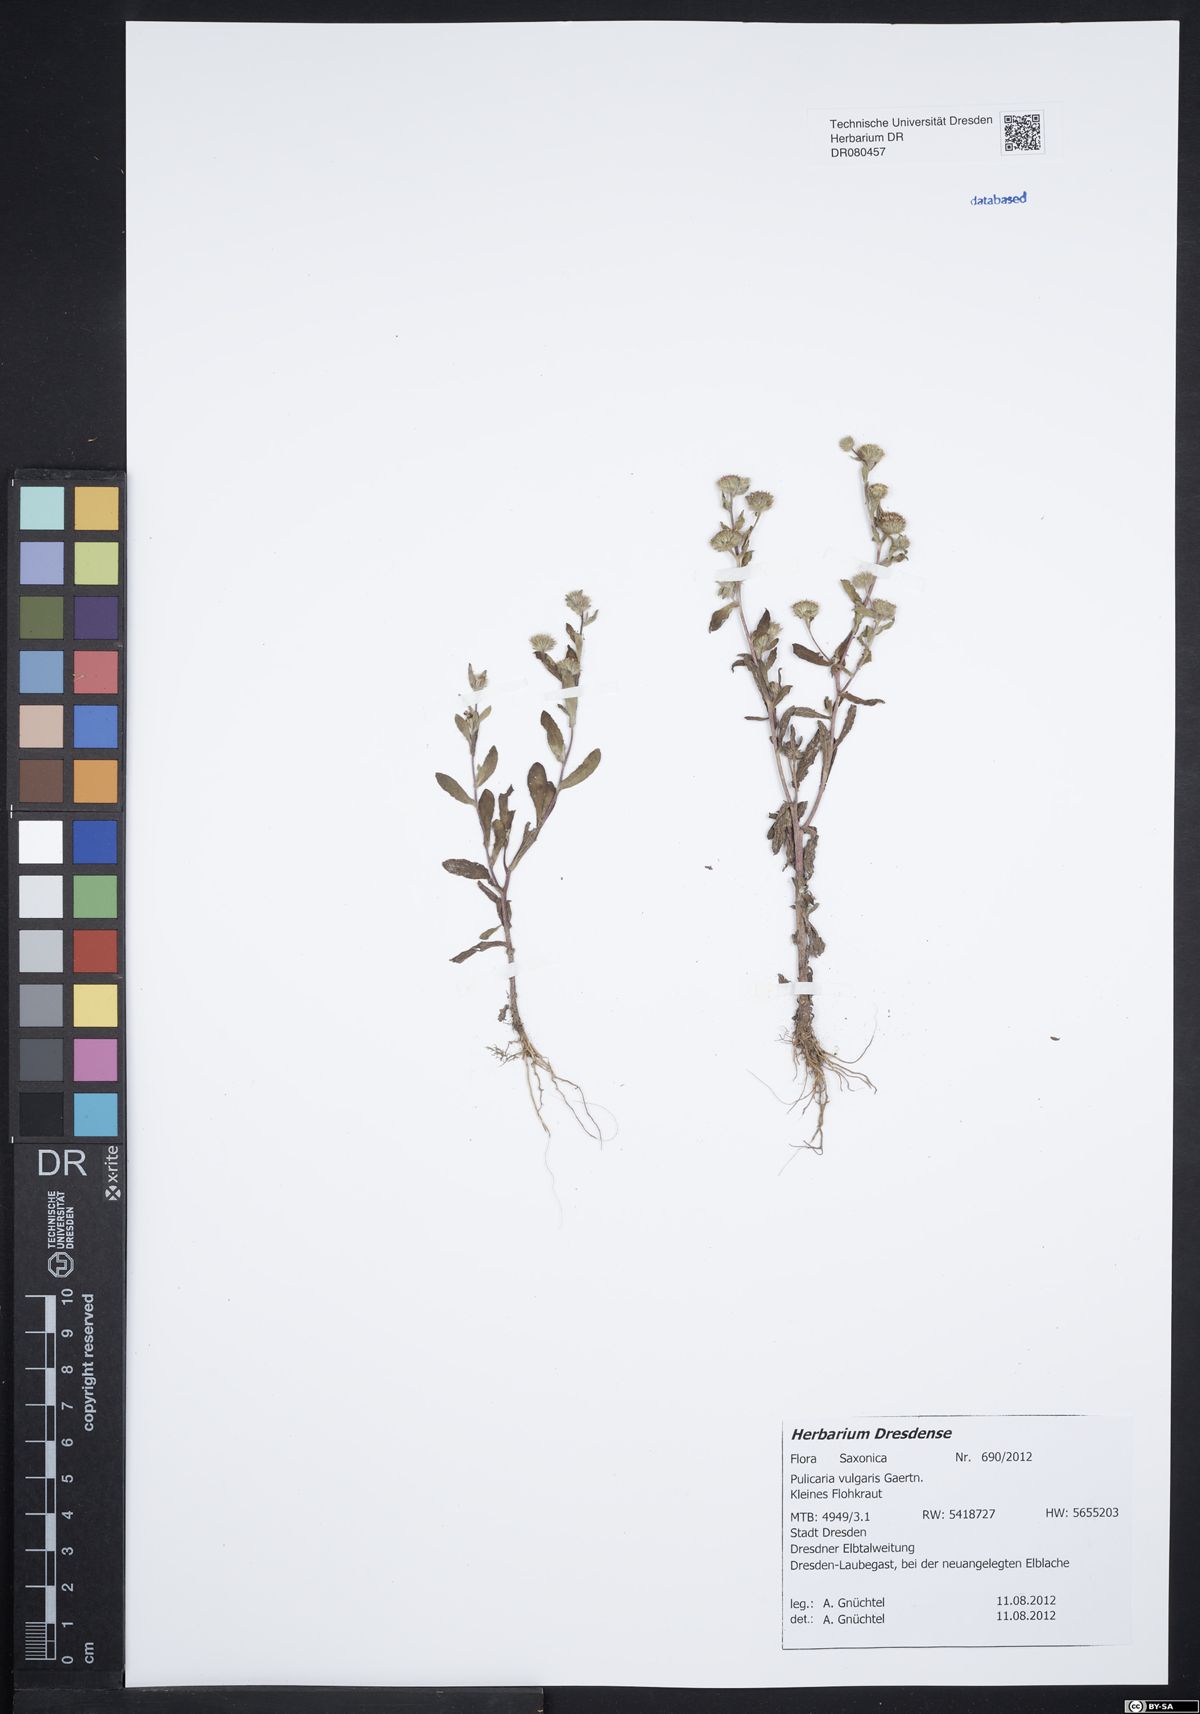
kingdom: Plantae
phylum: Tracheophyta
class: Magnoliopsida
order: Asterales
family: Asteraceae
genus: Pulicaria
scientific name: Pulicaria vulgaris
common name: Small fleabane
